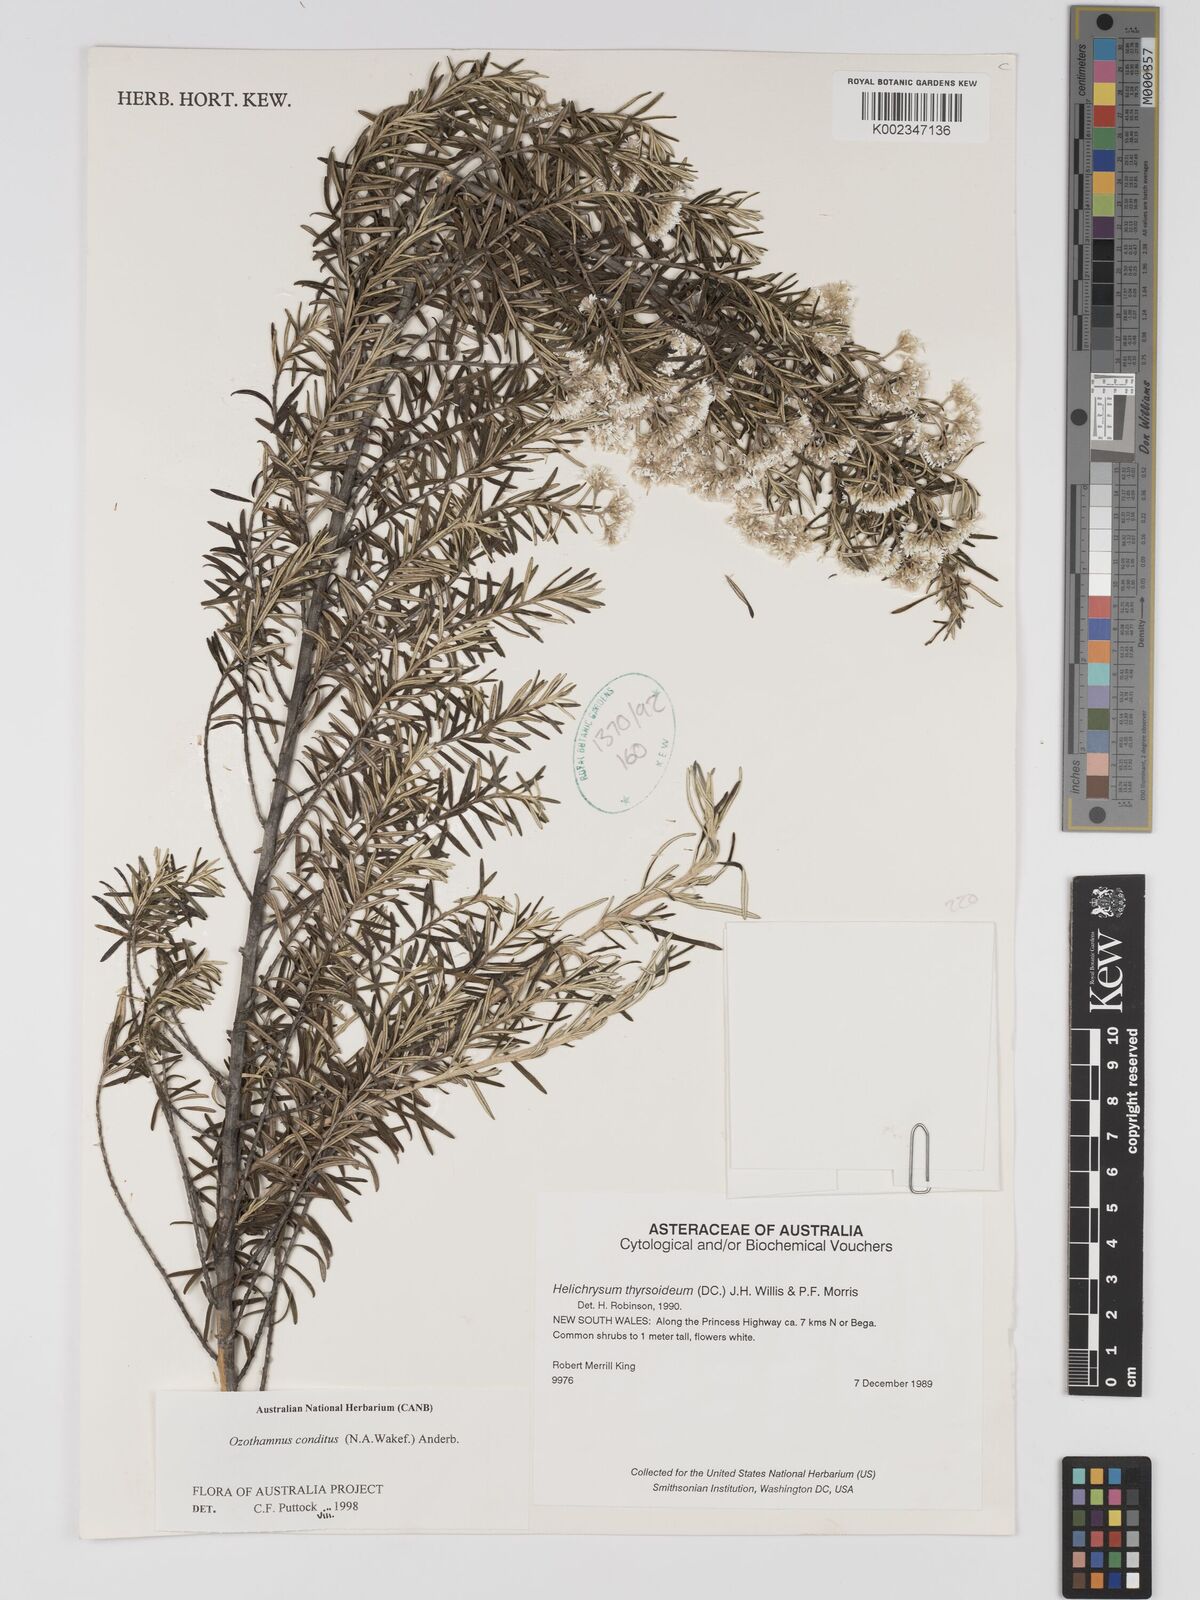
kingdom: Plantae
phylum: Tracheophyta
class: Magnoliopsida
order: Asterales
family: Asteraceae
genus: Ozothamnus
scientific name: Ozothamnus conditus
